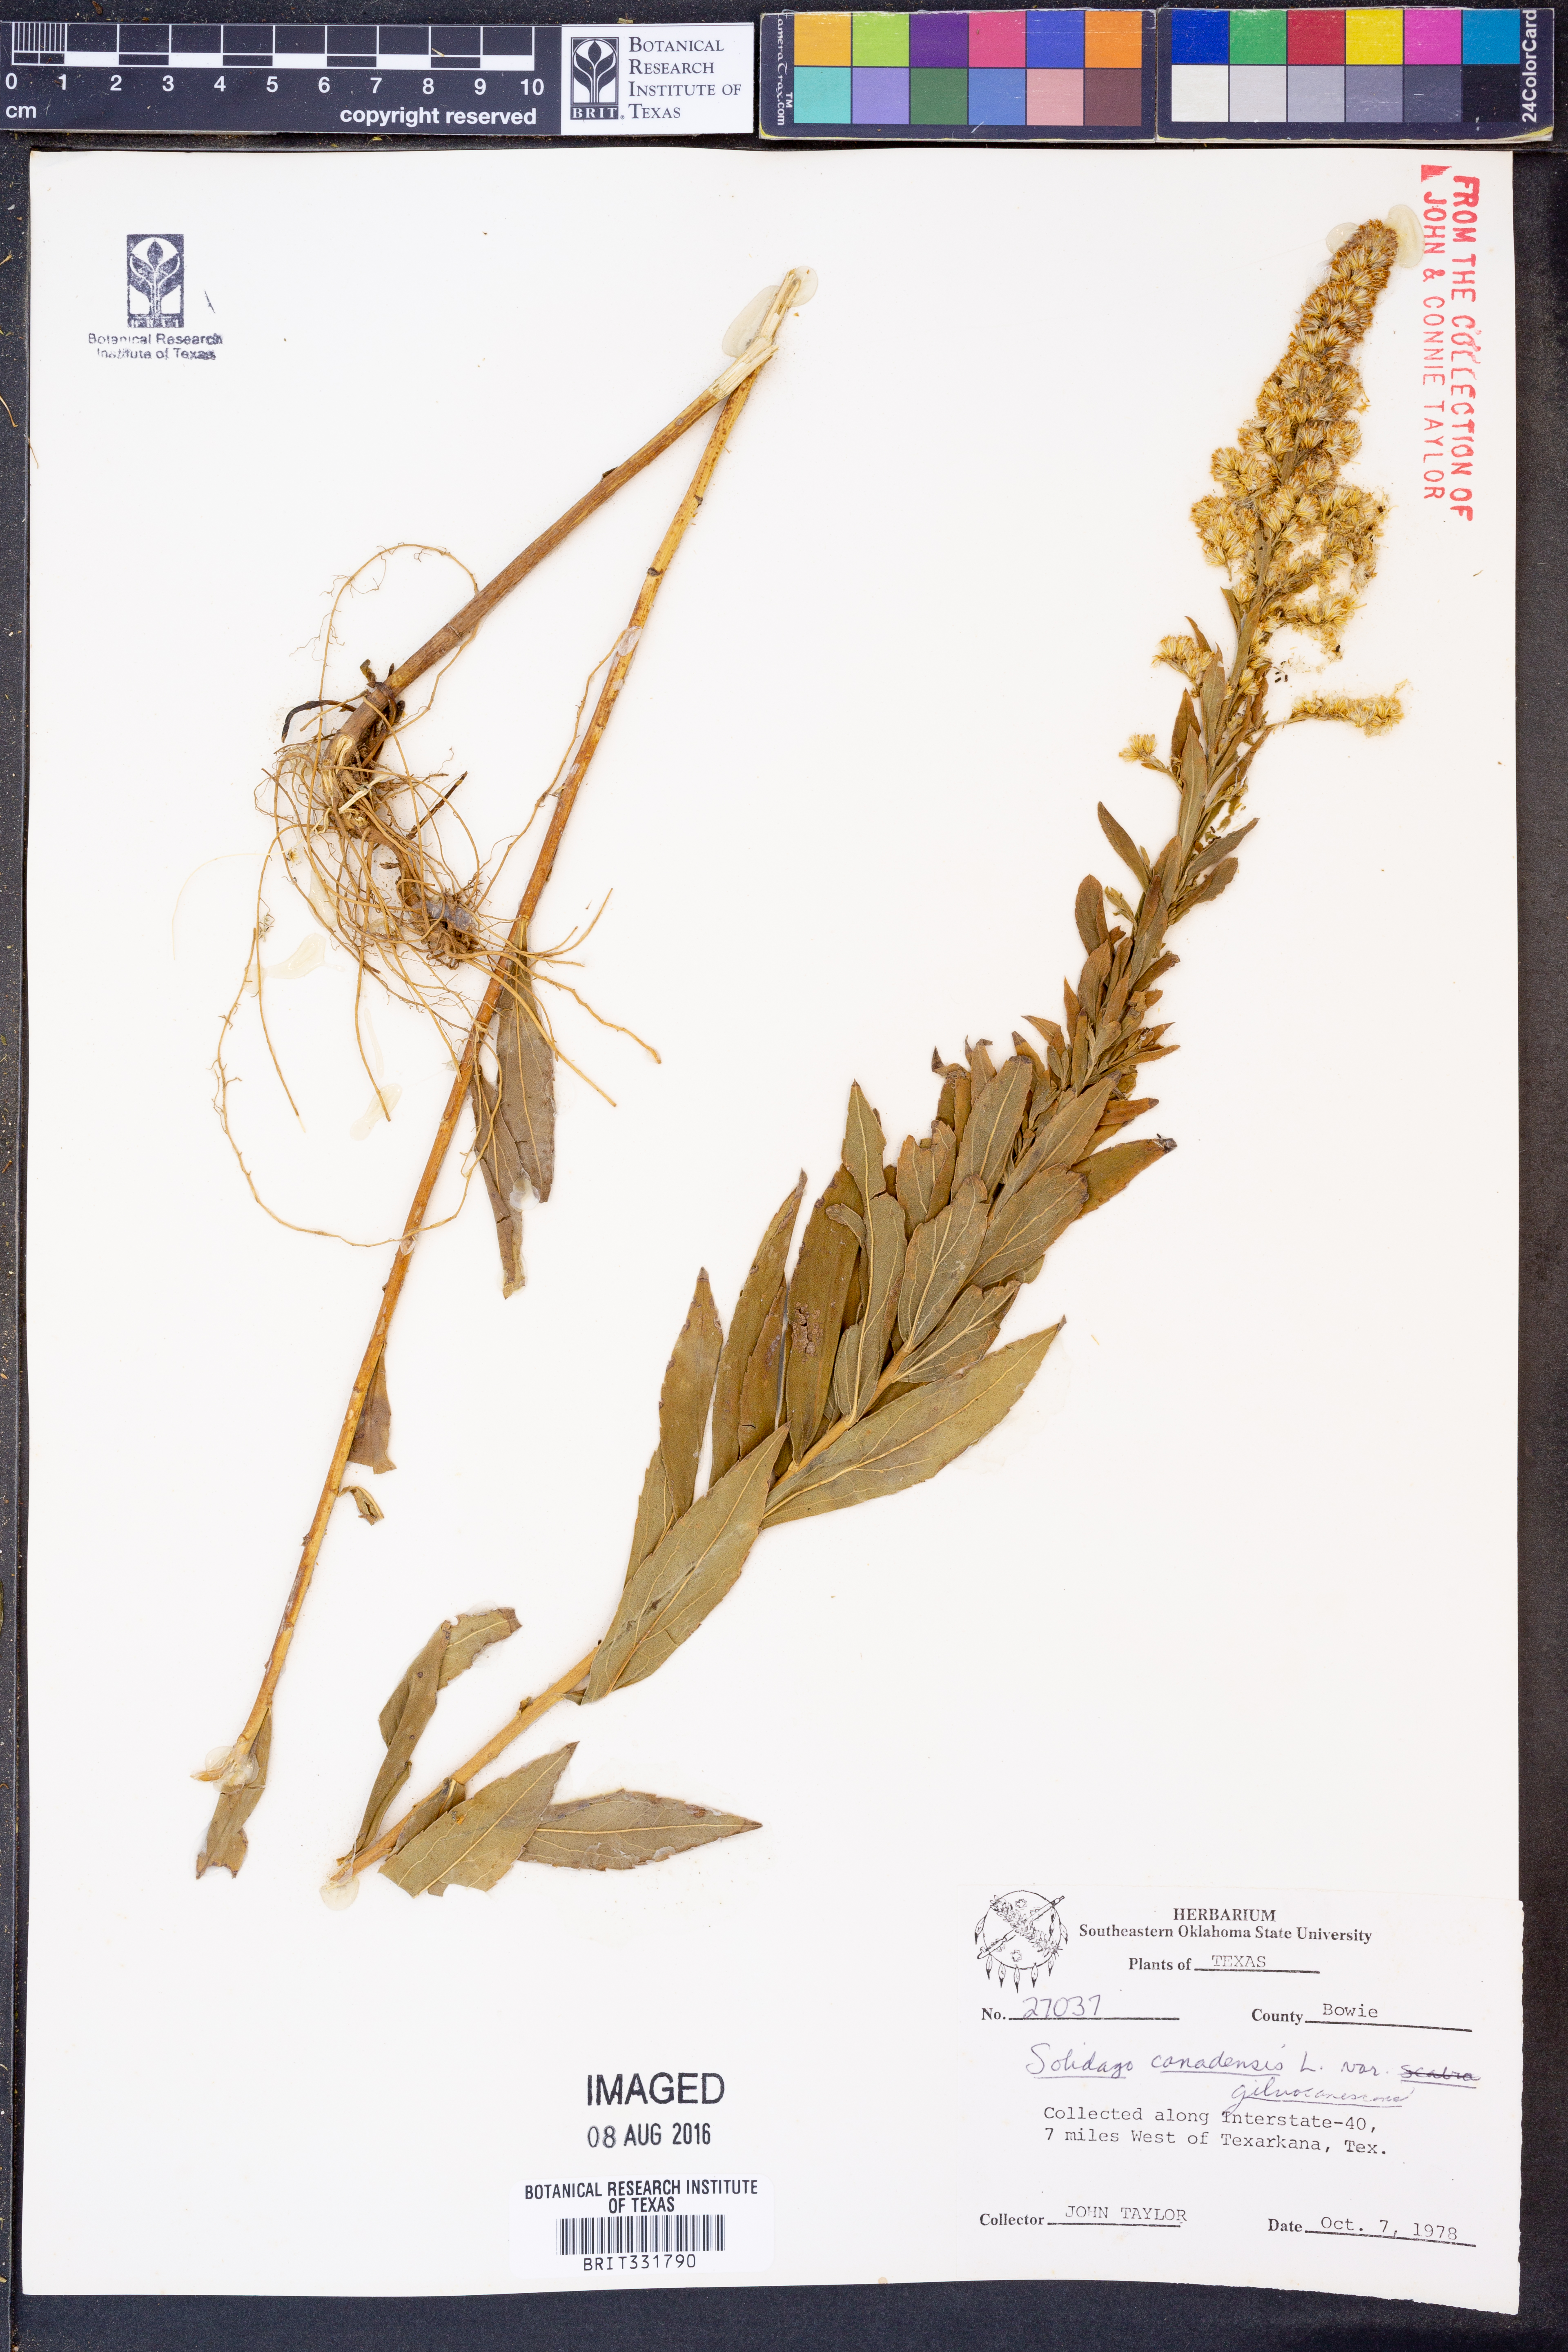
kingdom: Plantae
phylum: Tracheophyta
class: Magnoliopsida
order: Asterales
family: Asteraceae
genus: Solidago
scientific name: Solidago altissima
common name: Late goldenrod
